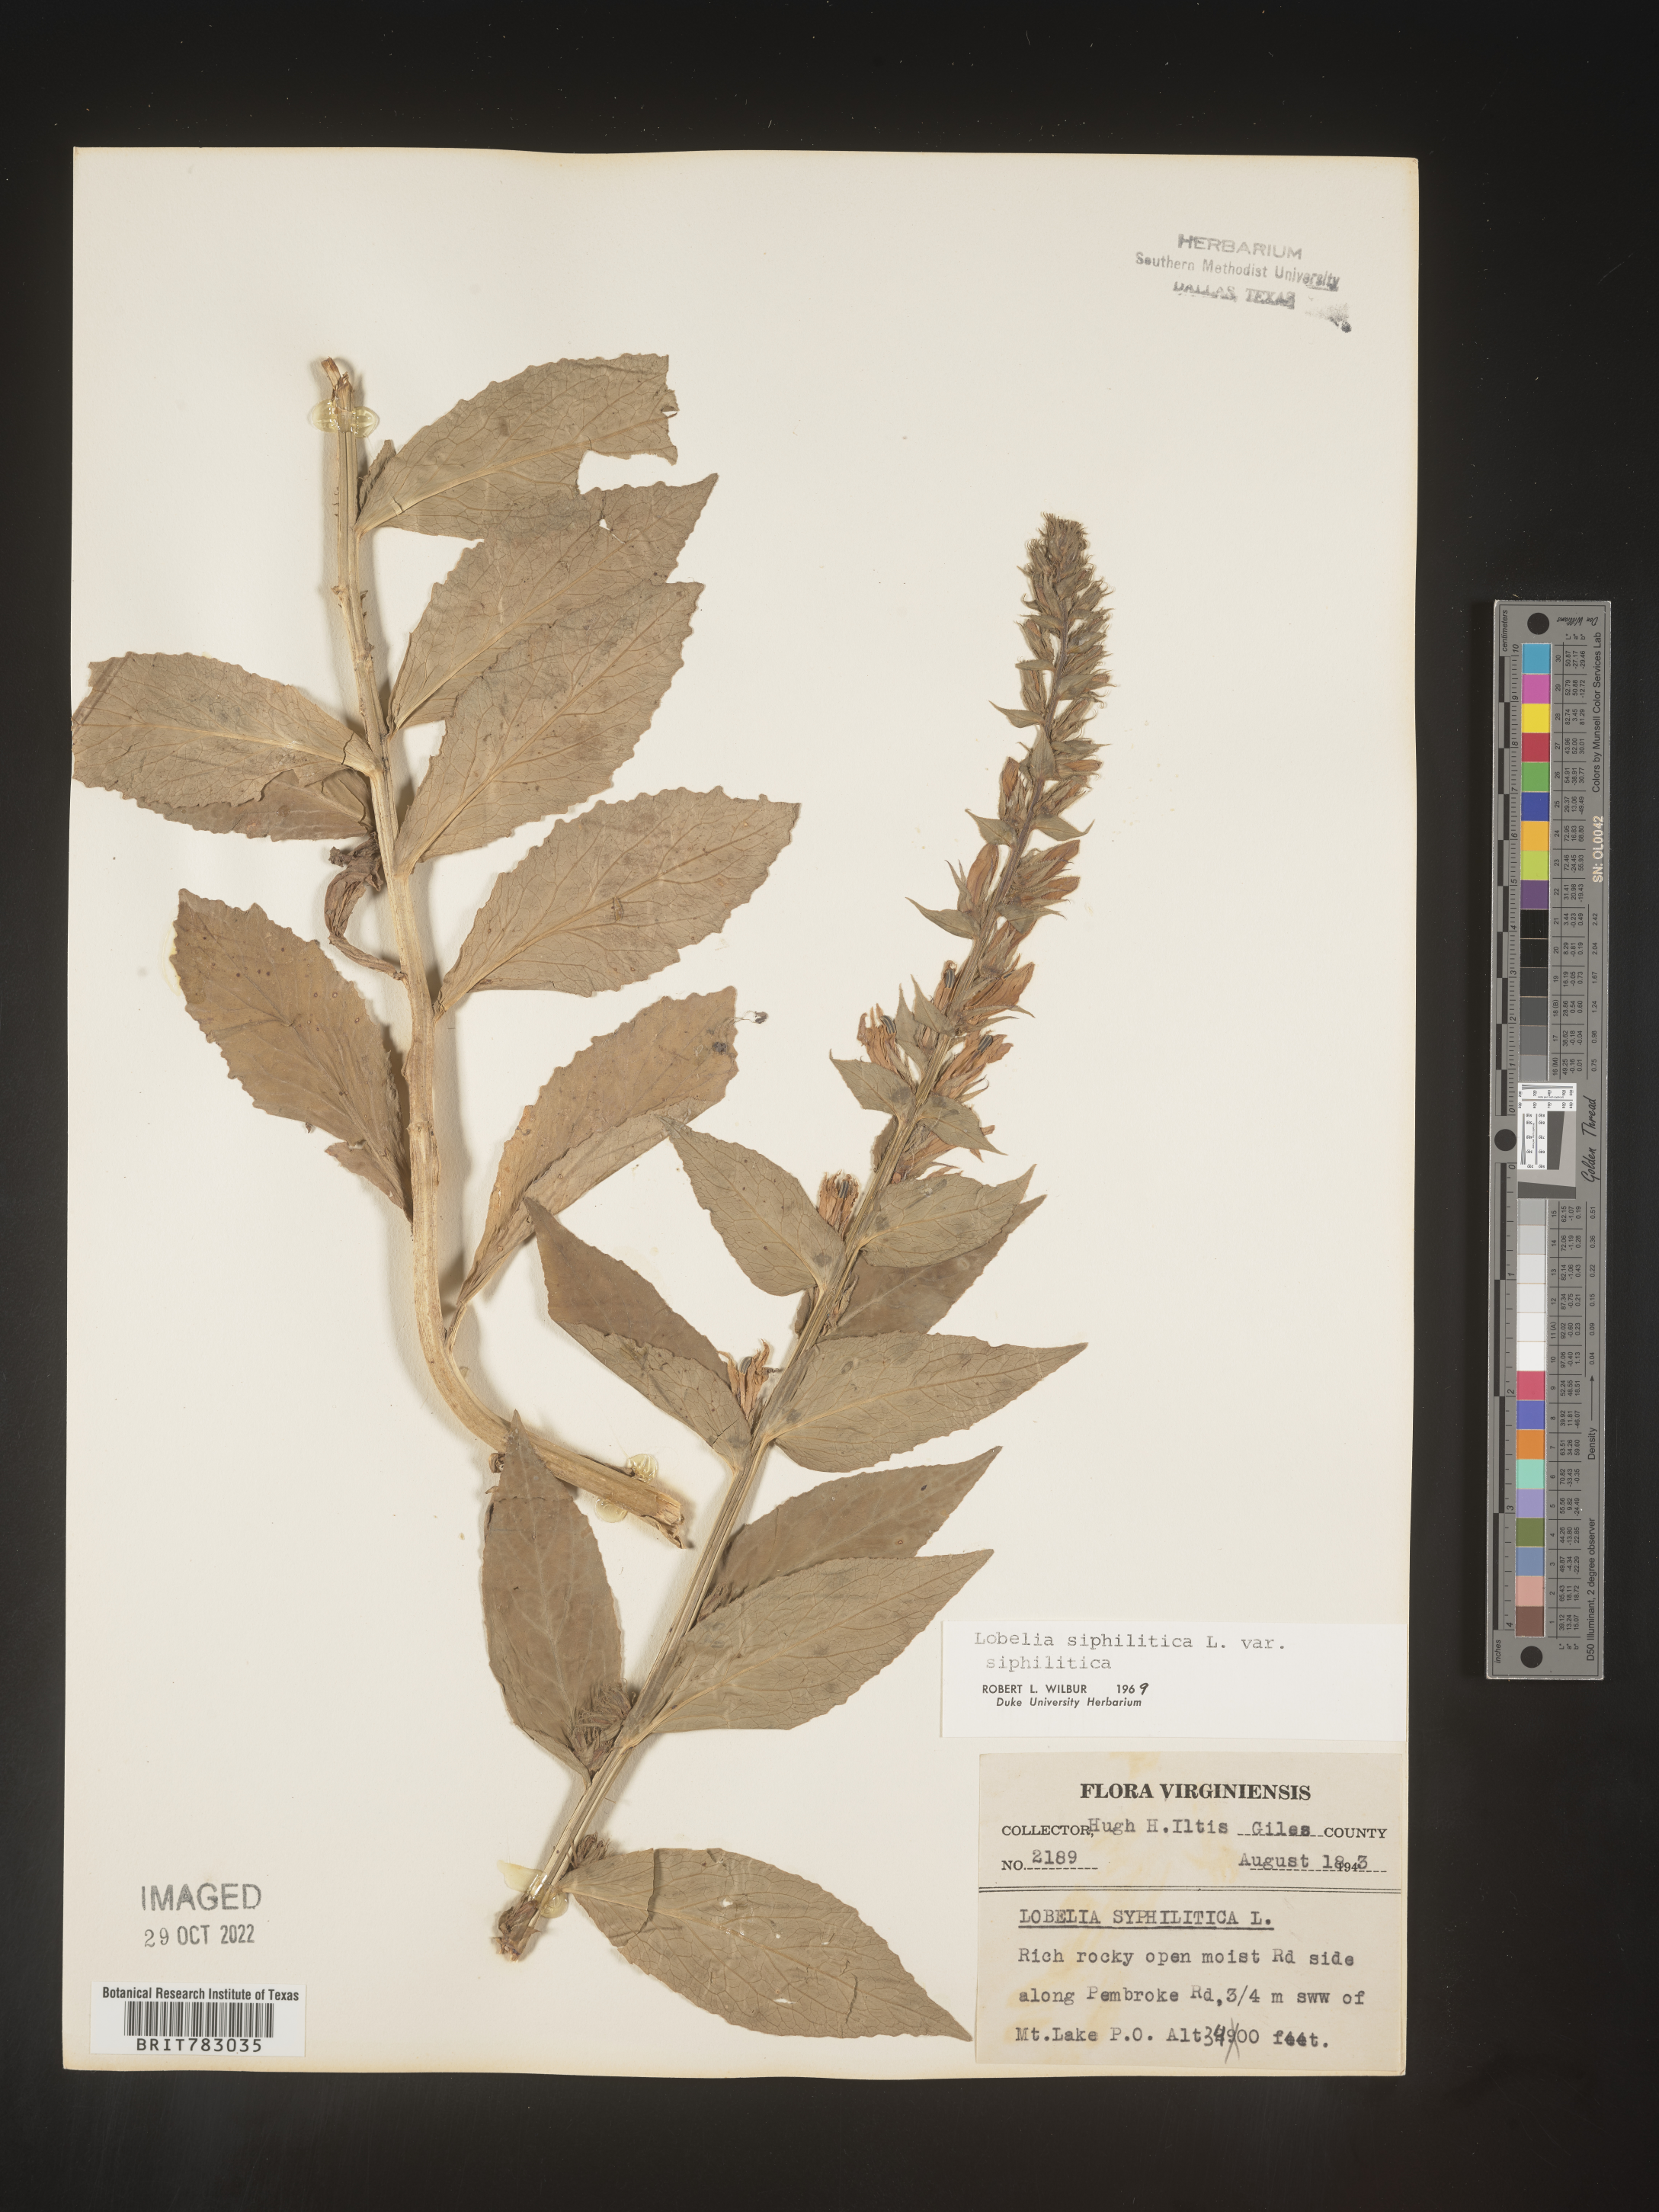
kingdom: Plantae
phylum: Tracheophyta
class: Magnoliopsida
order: Asterales
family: Campanulaceae
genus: Lobelia
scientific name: Lobelia siphilitica
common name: Great lobelia
